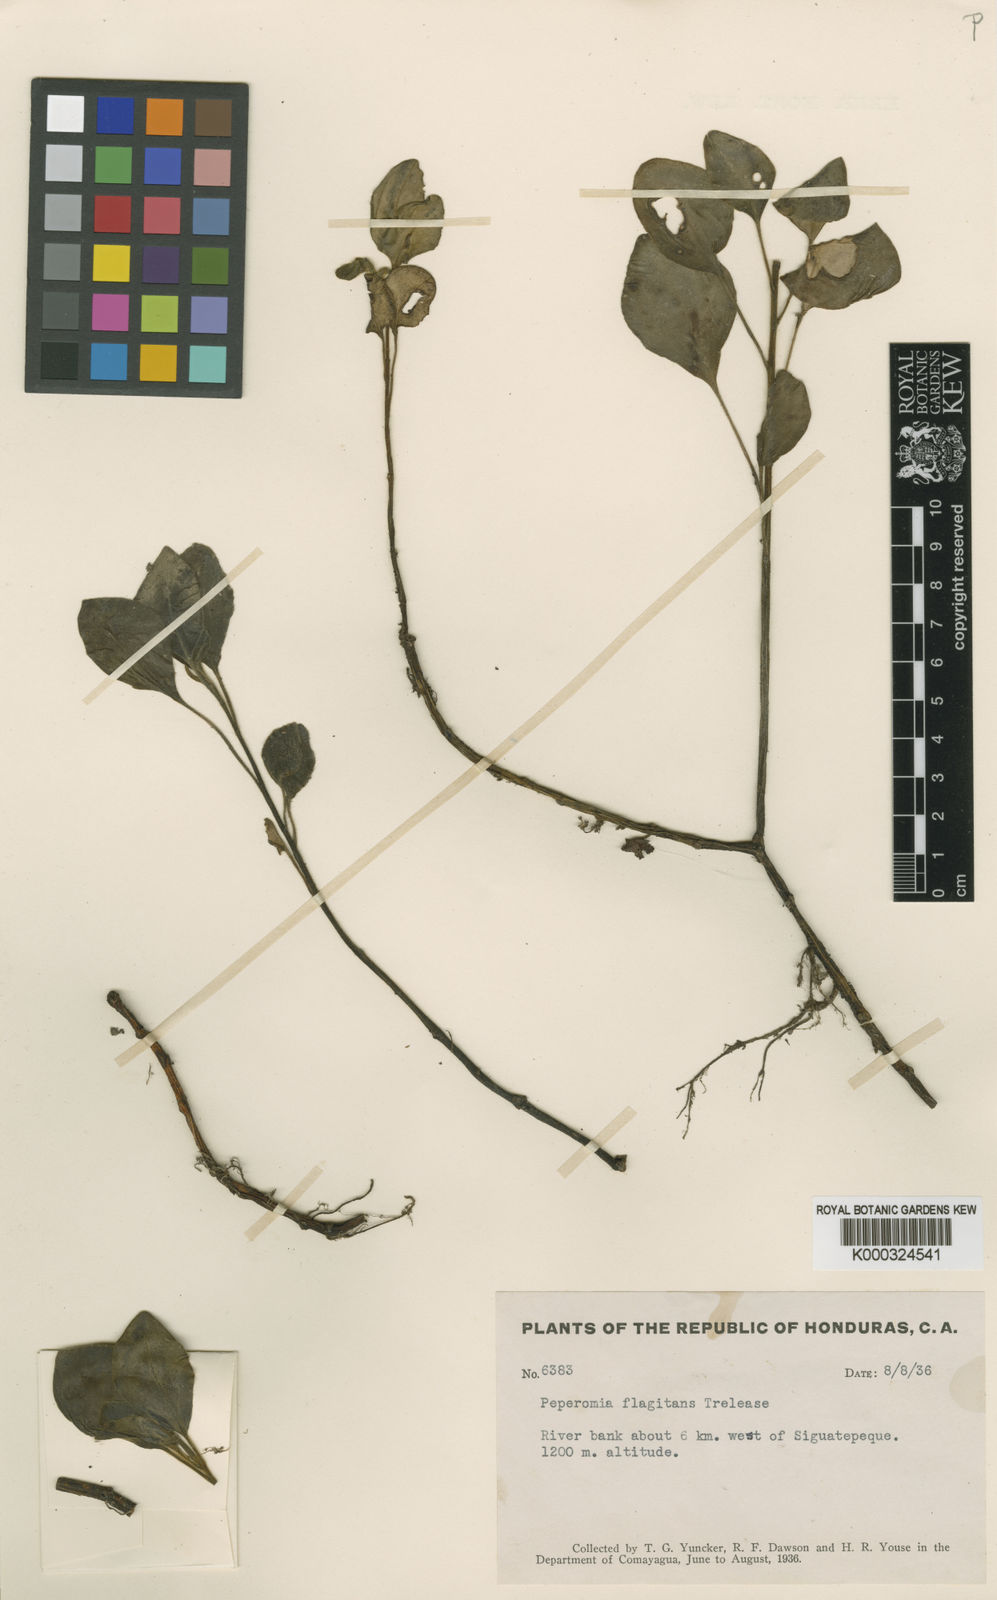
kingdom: Plantae
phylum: Tracheophyta
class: Magnoliopsida
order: Piperales
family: Piperaceae
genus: Peperomia
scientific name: Peperomia succulenta
